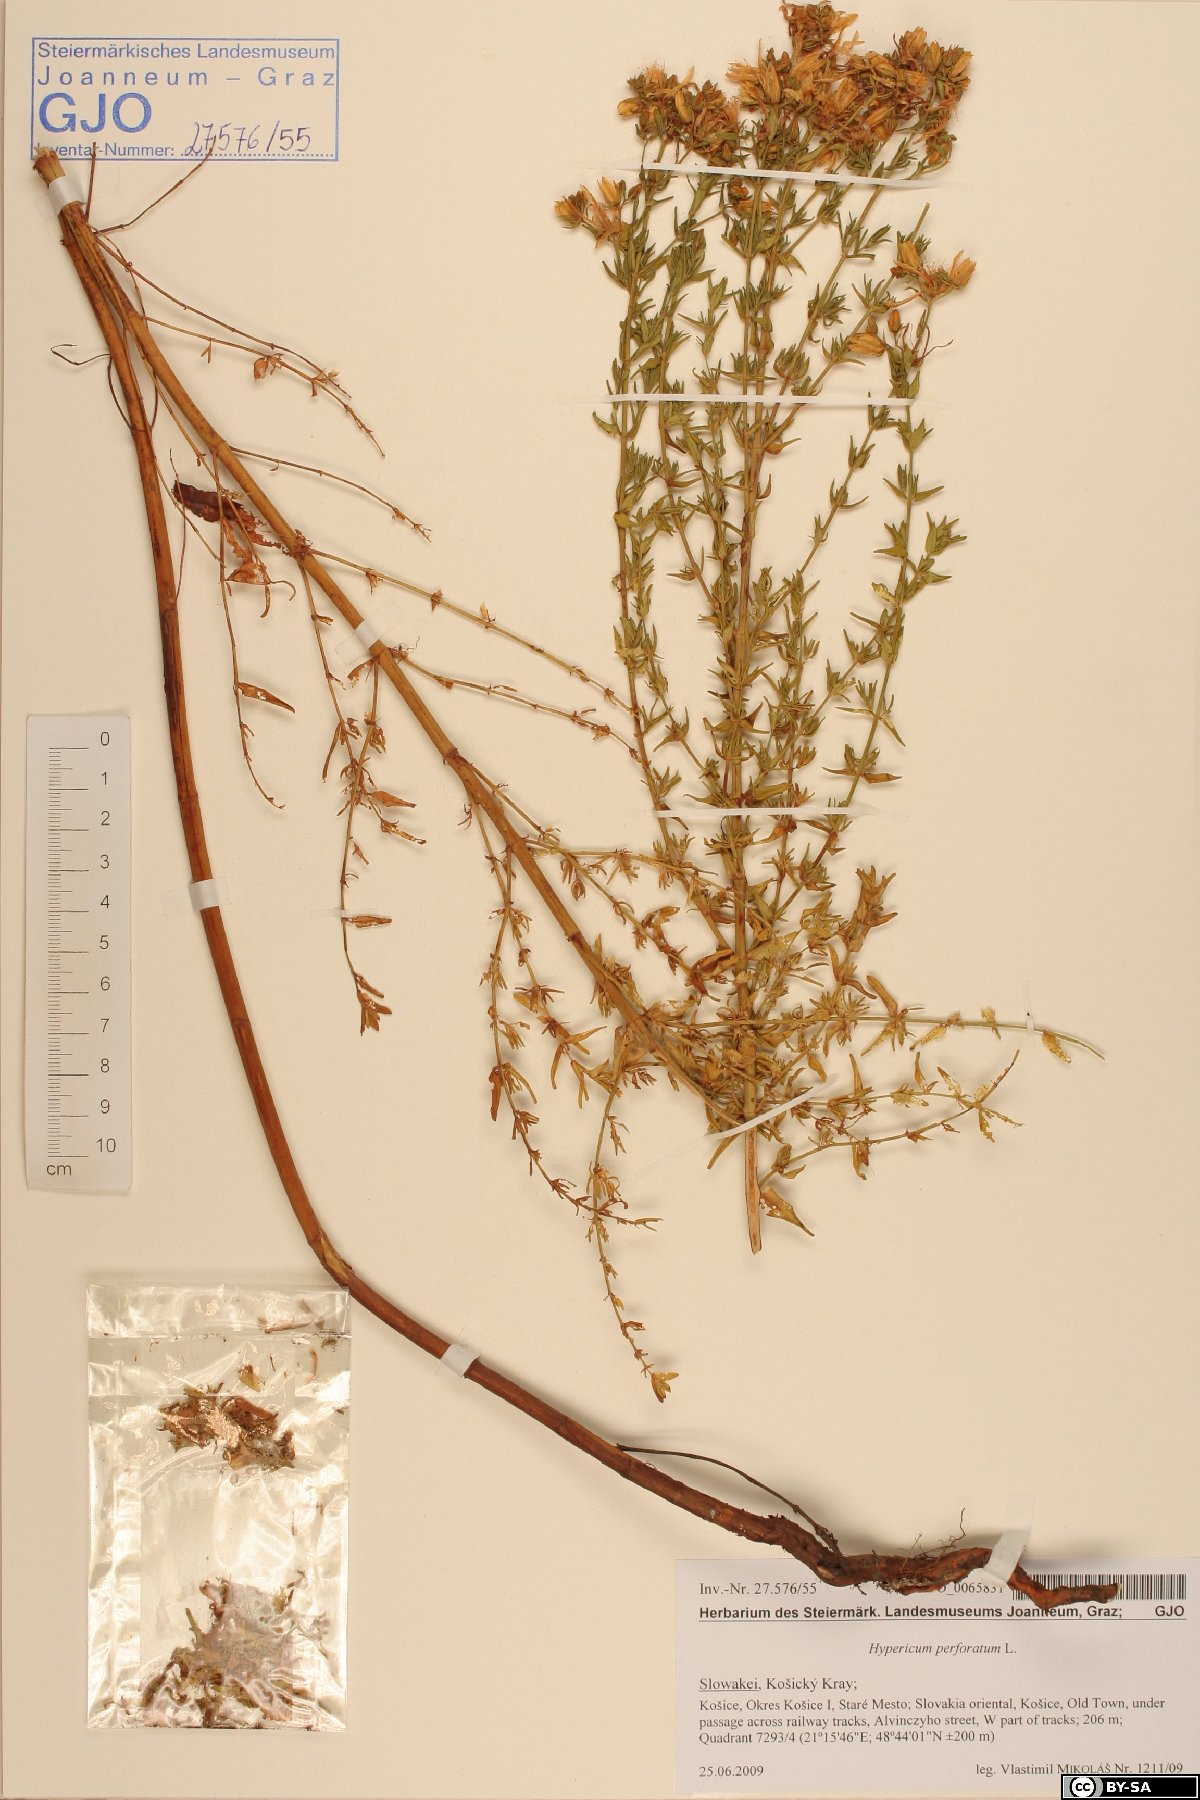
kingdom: Plantae
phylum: Tracheophyta
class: Magnoliopsida
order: Malpighiales
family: Hypericaceae
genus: Hypericum
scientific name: Hypericum perforatum
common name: Common st. johnswort
